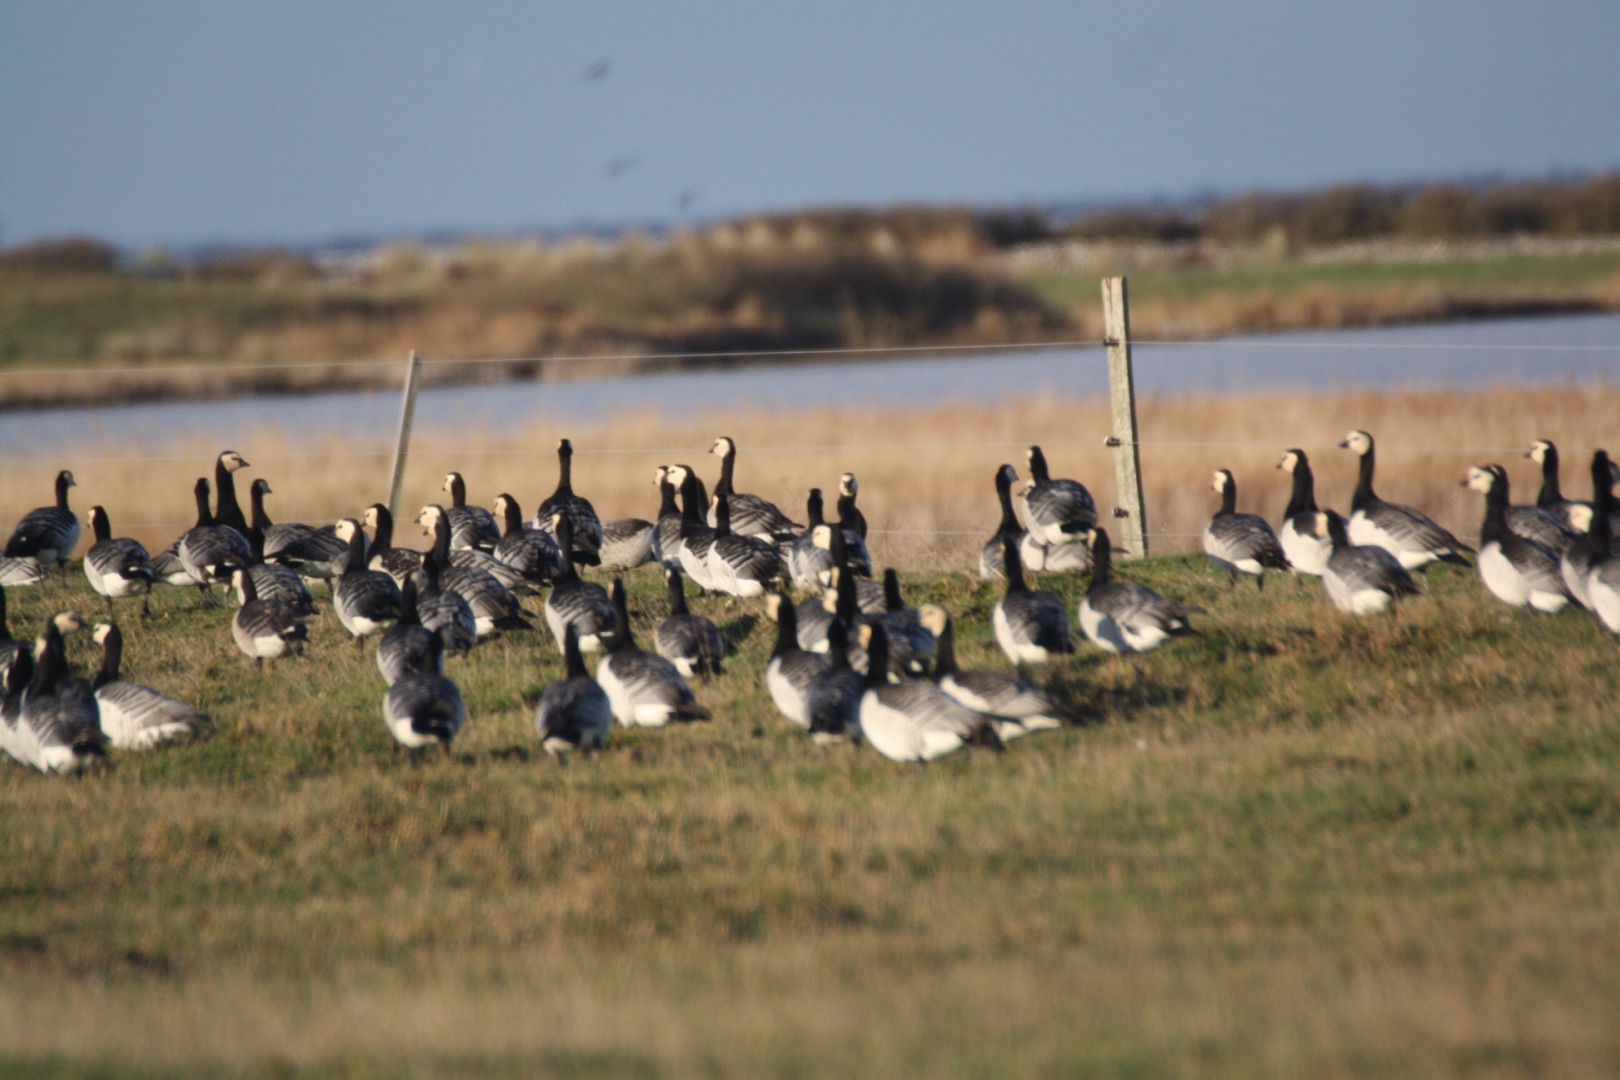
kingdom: Animalia
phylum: Chordata
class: Aves
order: Anseriformes
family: Anatidae
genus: Branta
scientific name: Branta leucopsis
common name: Bramgås
